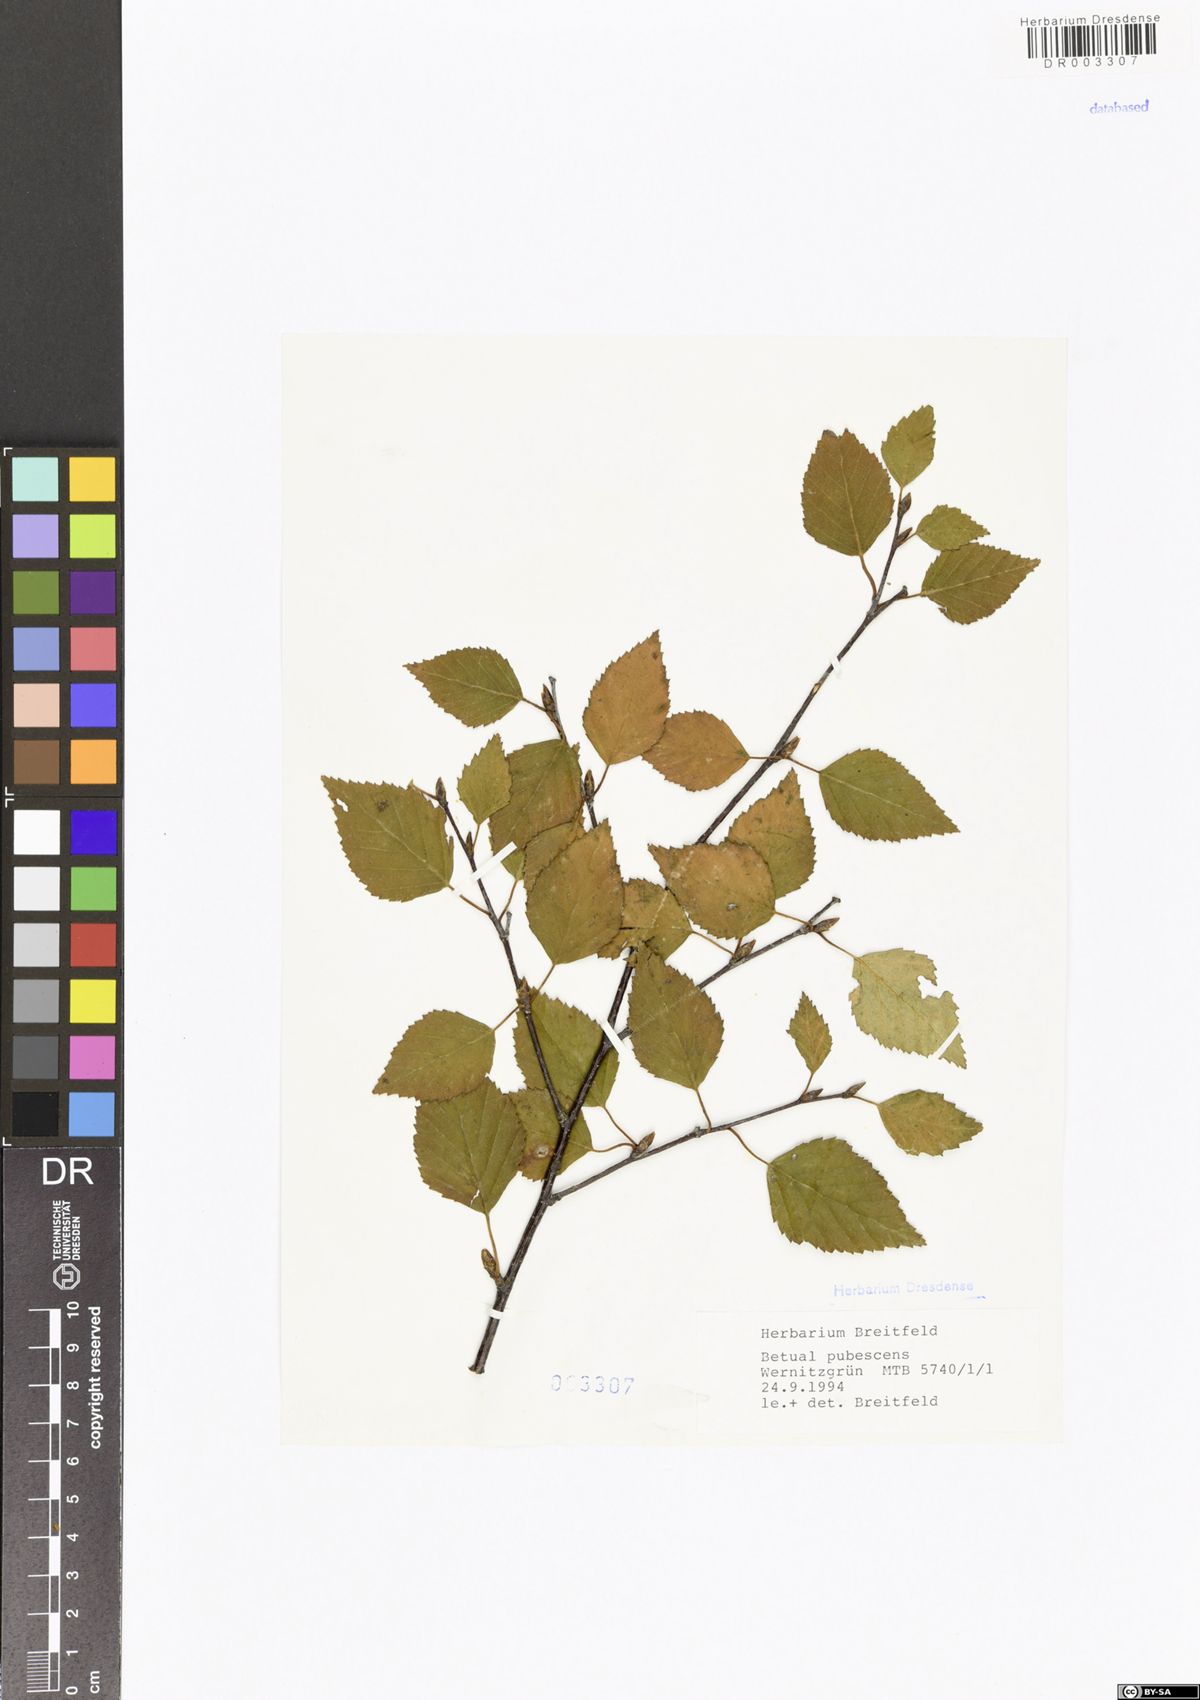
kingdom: Plantae
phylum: Tracheophyta
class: Magnoliopsida
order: Fagales
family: Betulaceae
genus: Betula
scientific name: Betula pubescens
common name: Downy birch
